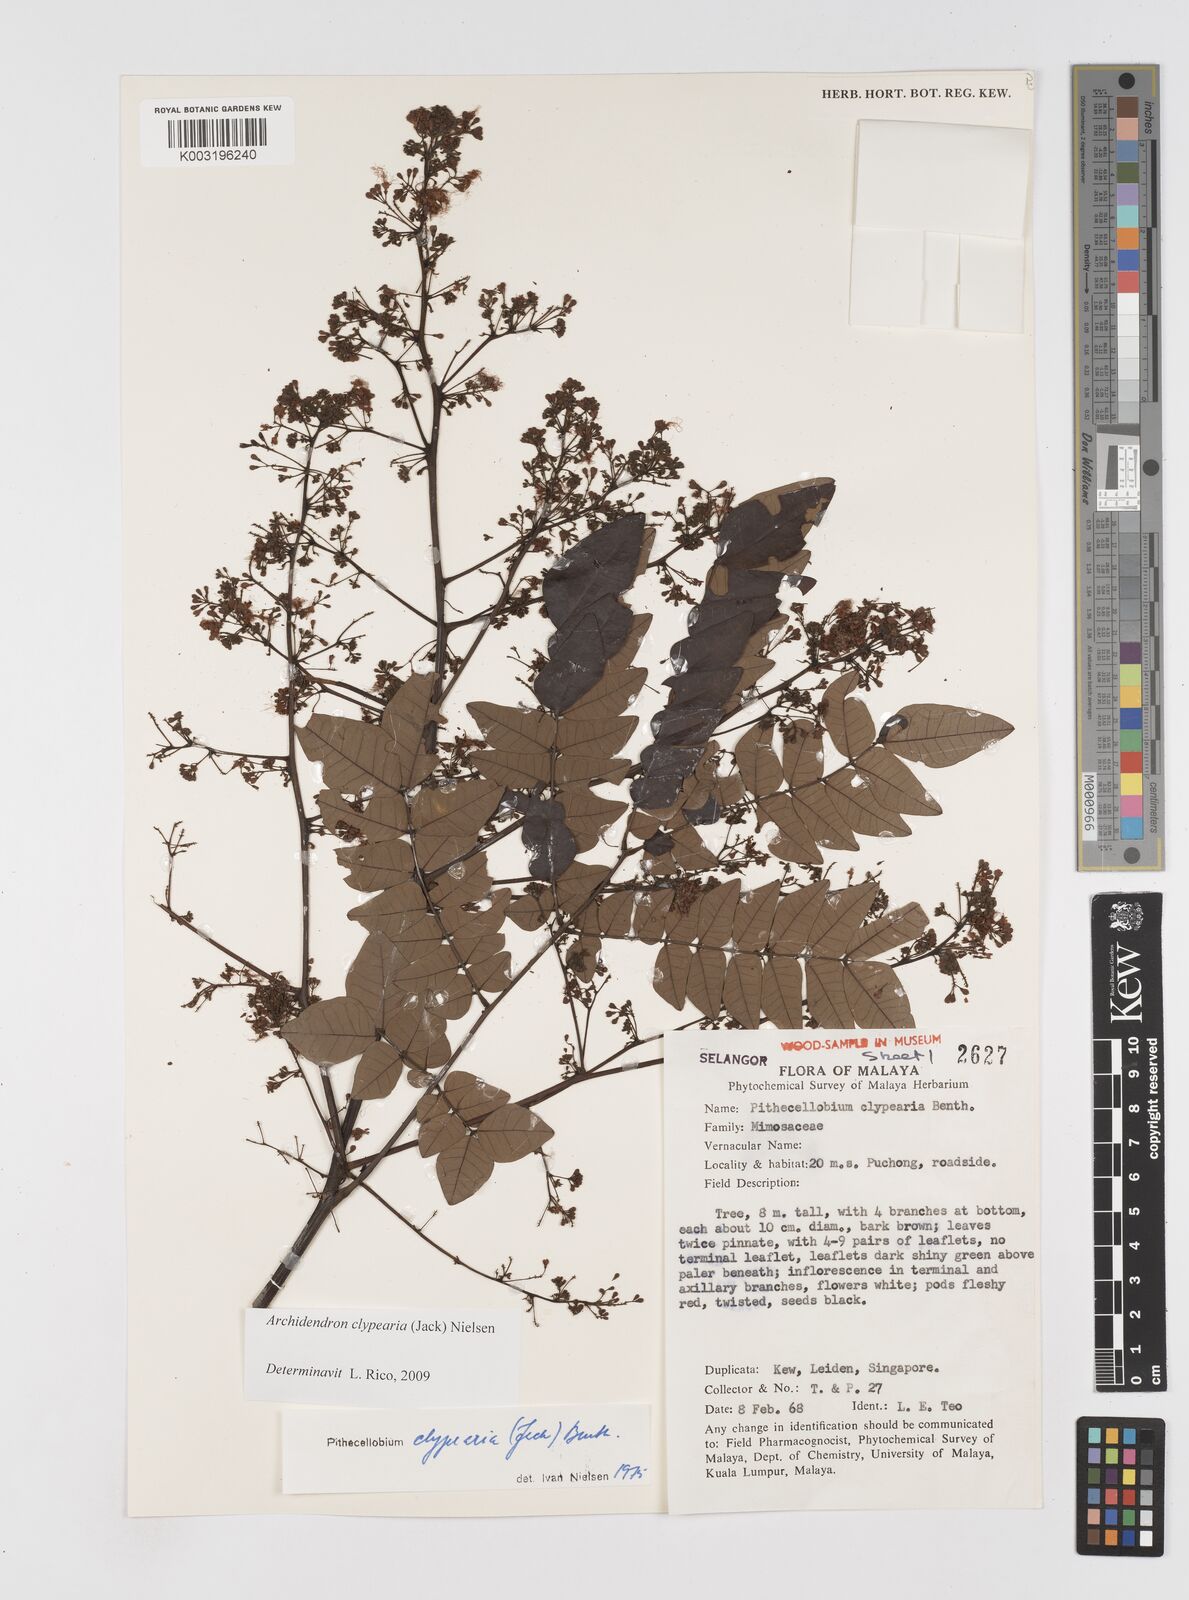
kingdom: Plantae
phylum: Tracheophyta
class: Magnoliopsida
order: Fabales
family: Fabaceae
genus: Archidendron
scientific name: Archidendron clypearia
